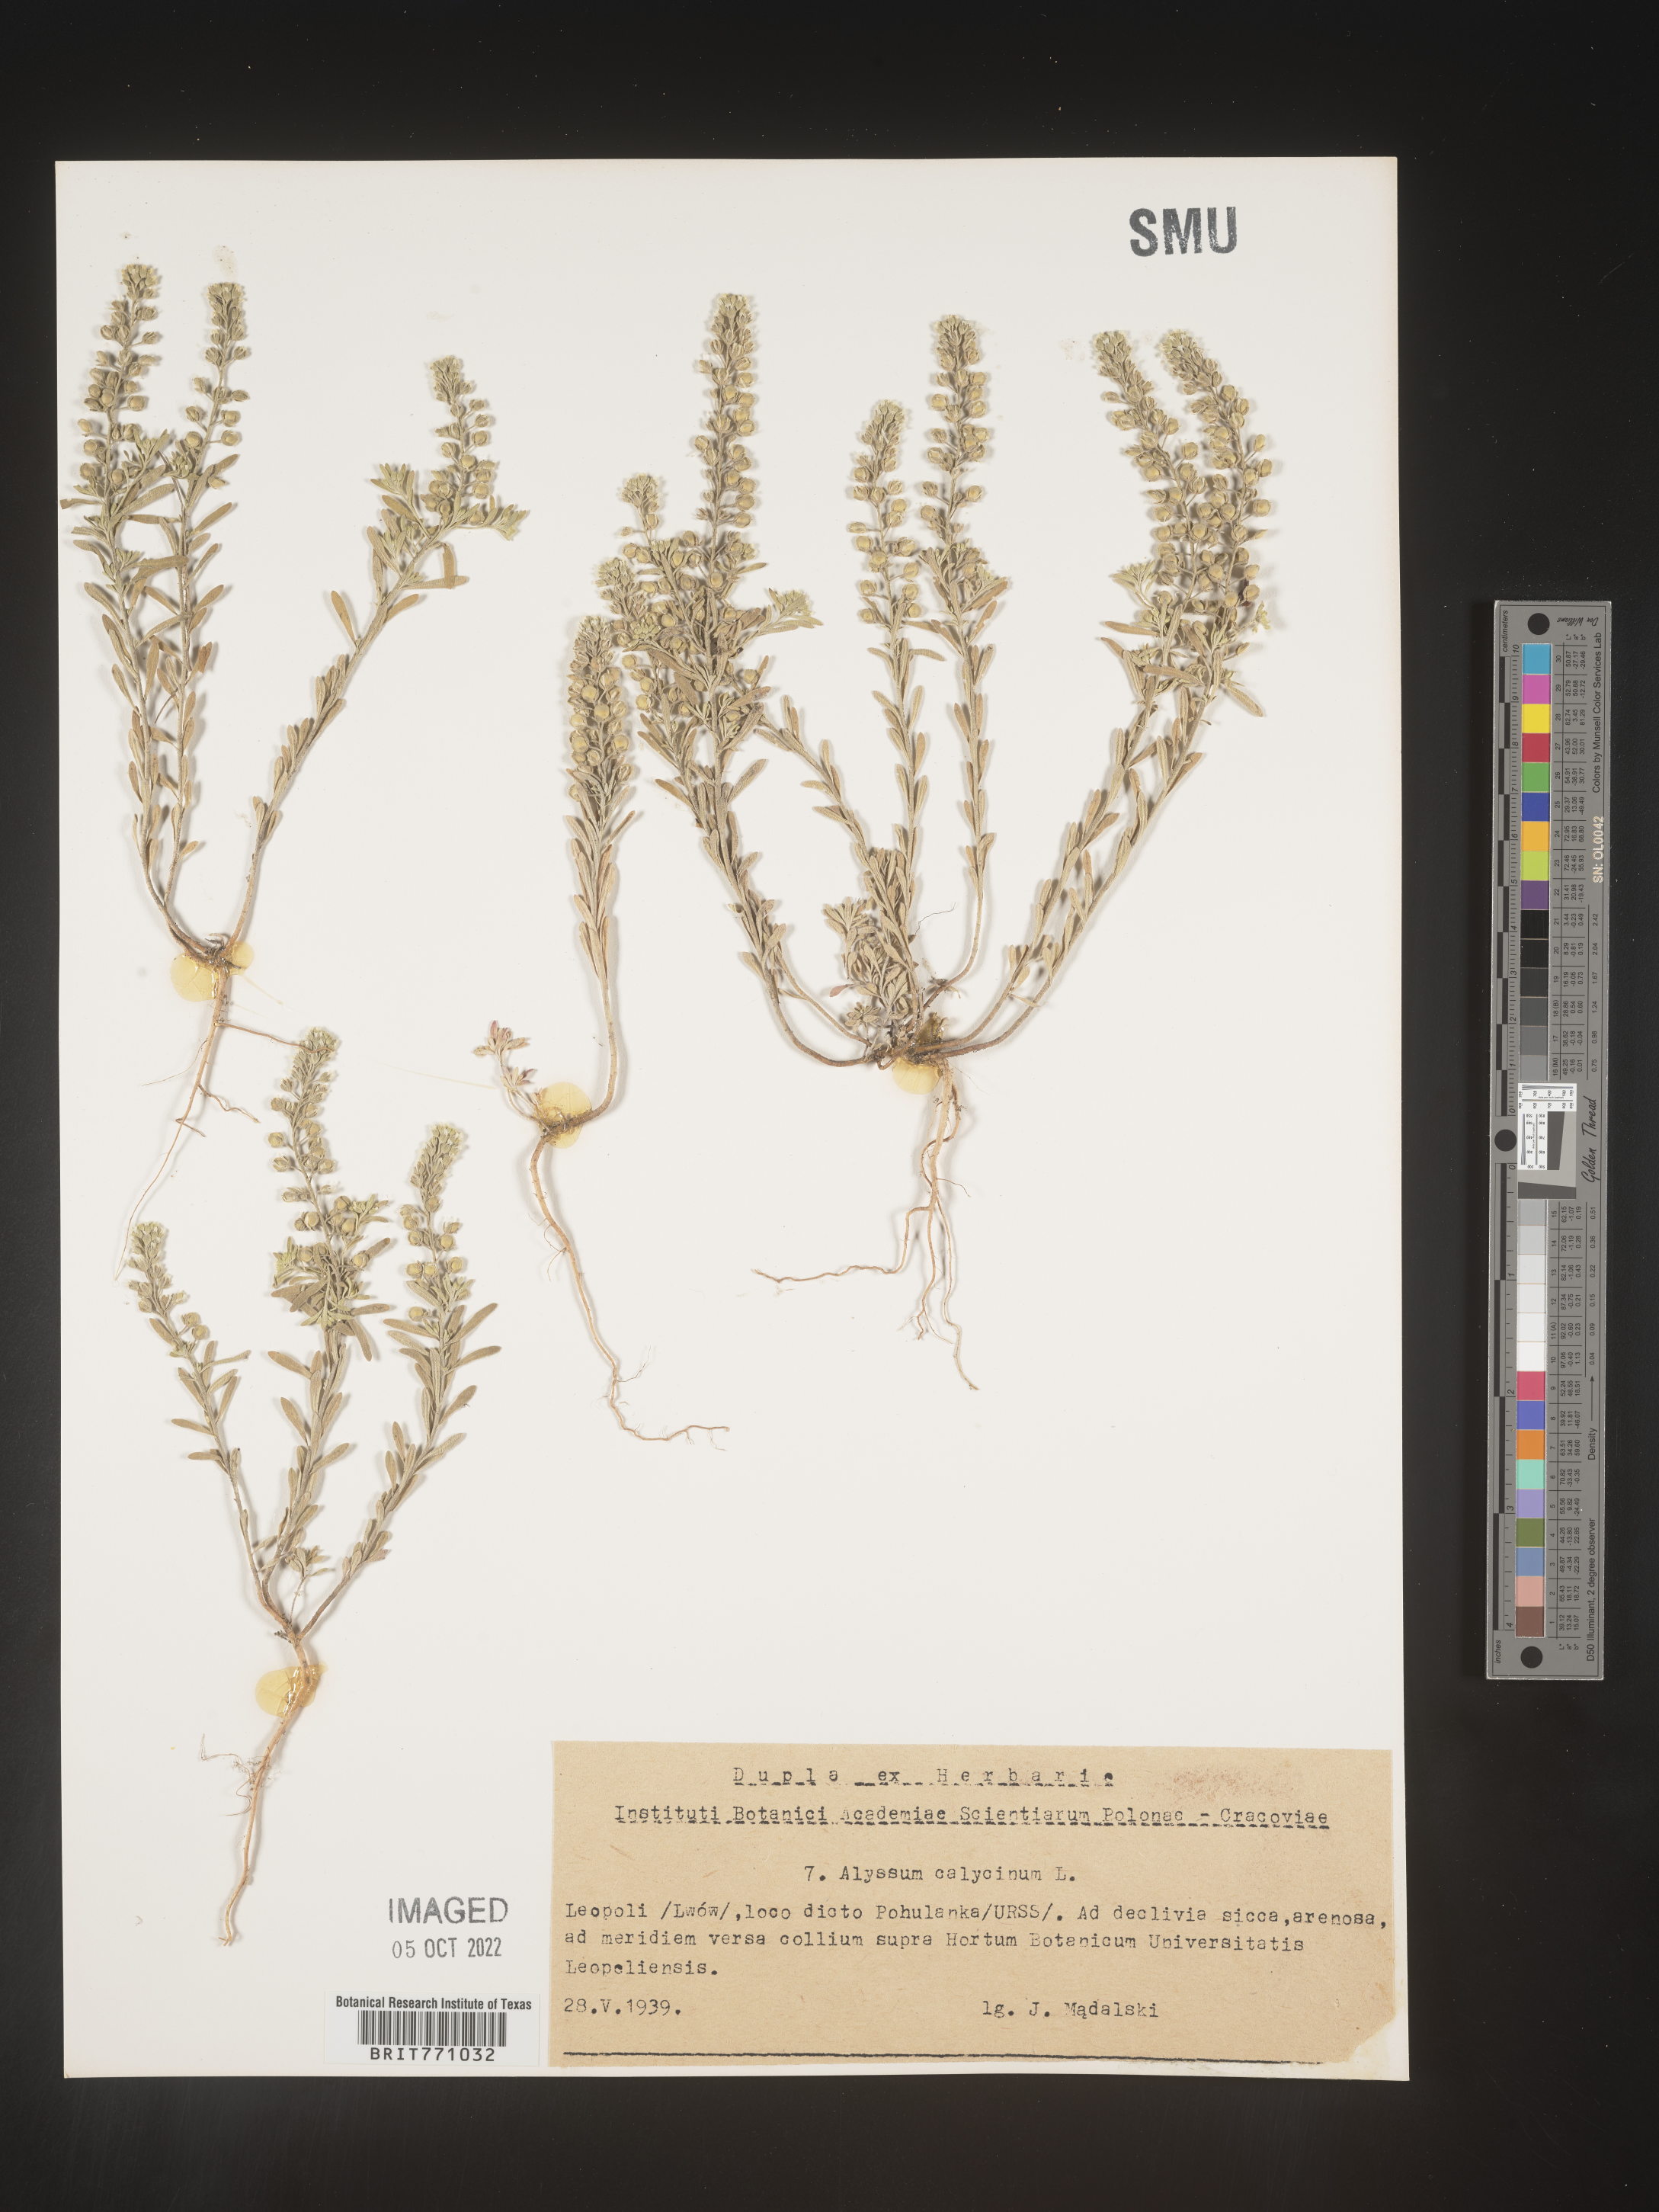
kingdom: Plantae
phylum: Tracheophyta
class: Magnoliopsida
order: Brassicales
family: Brassicaceae
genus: Alyssum
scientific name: Alyssum
